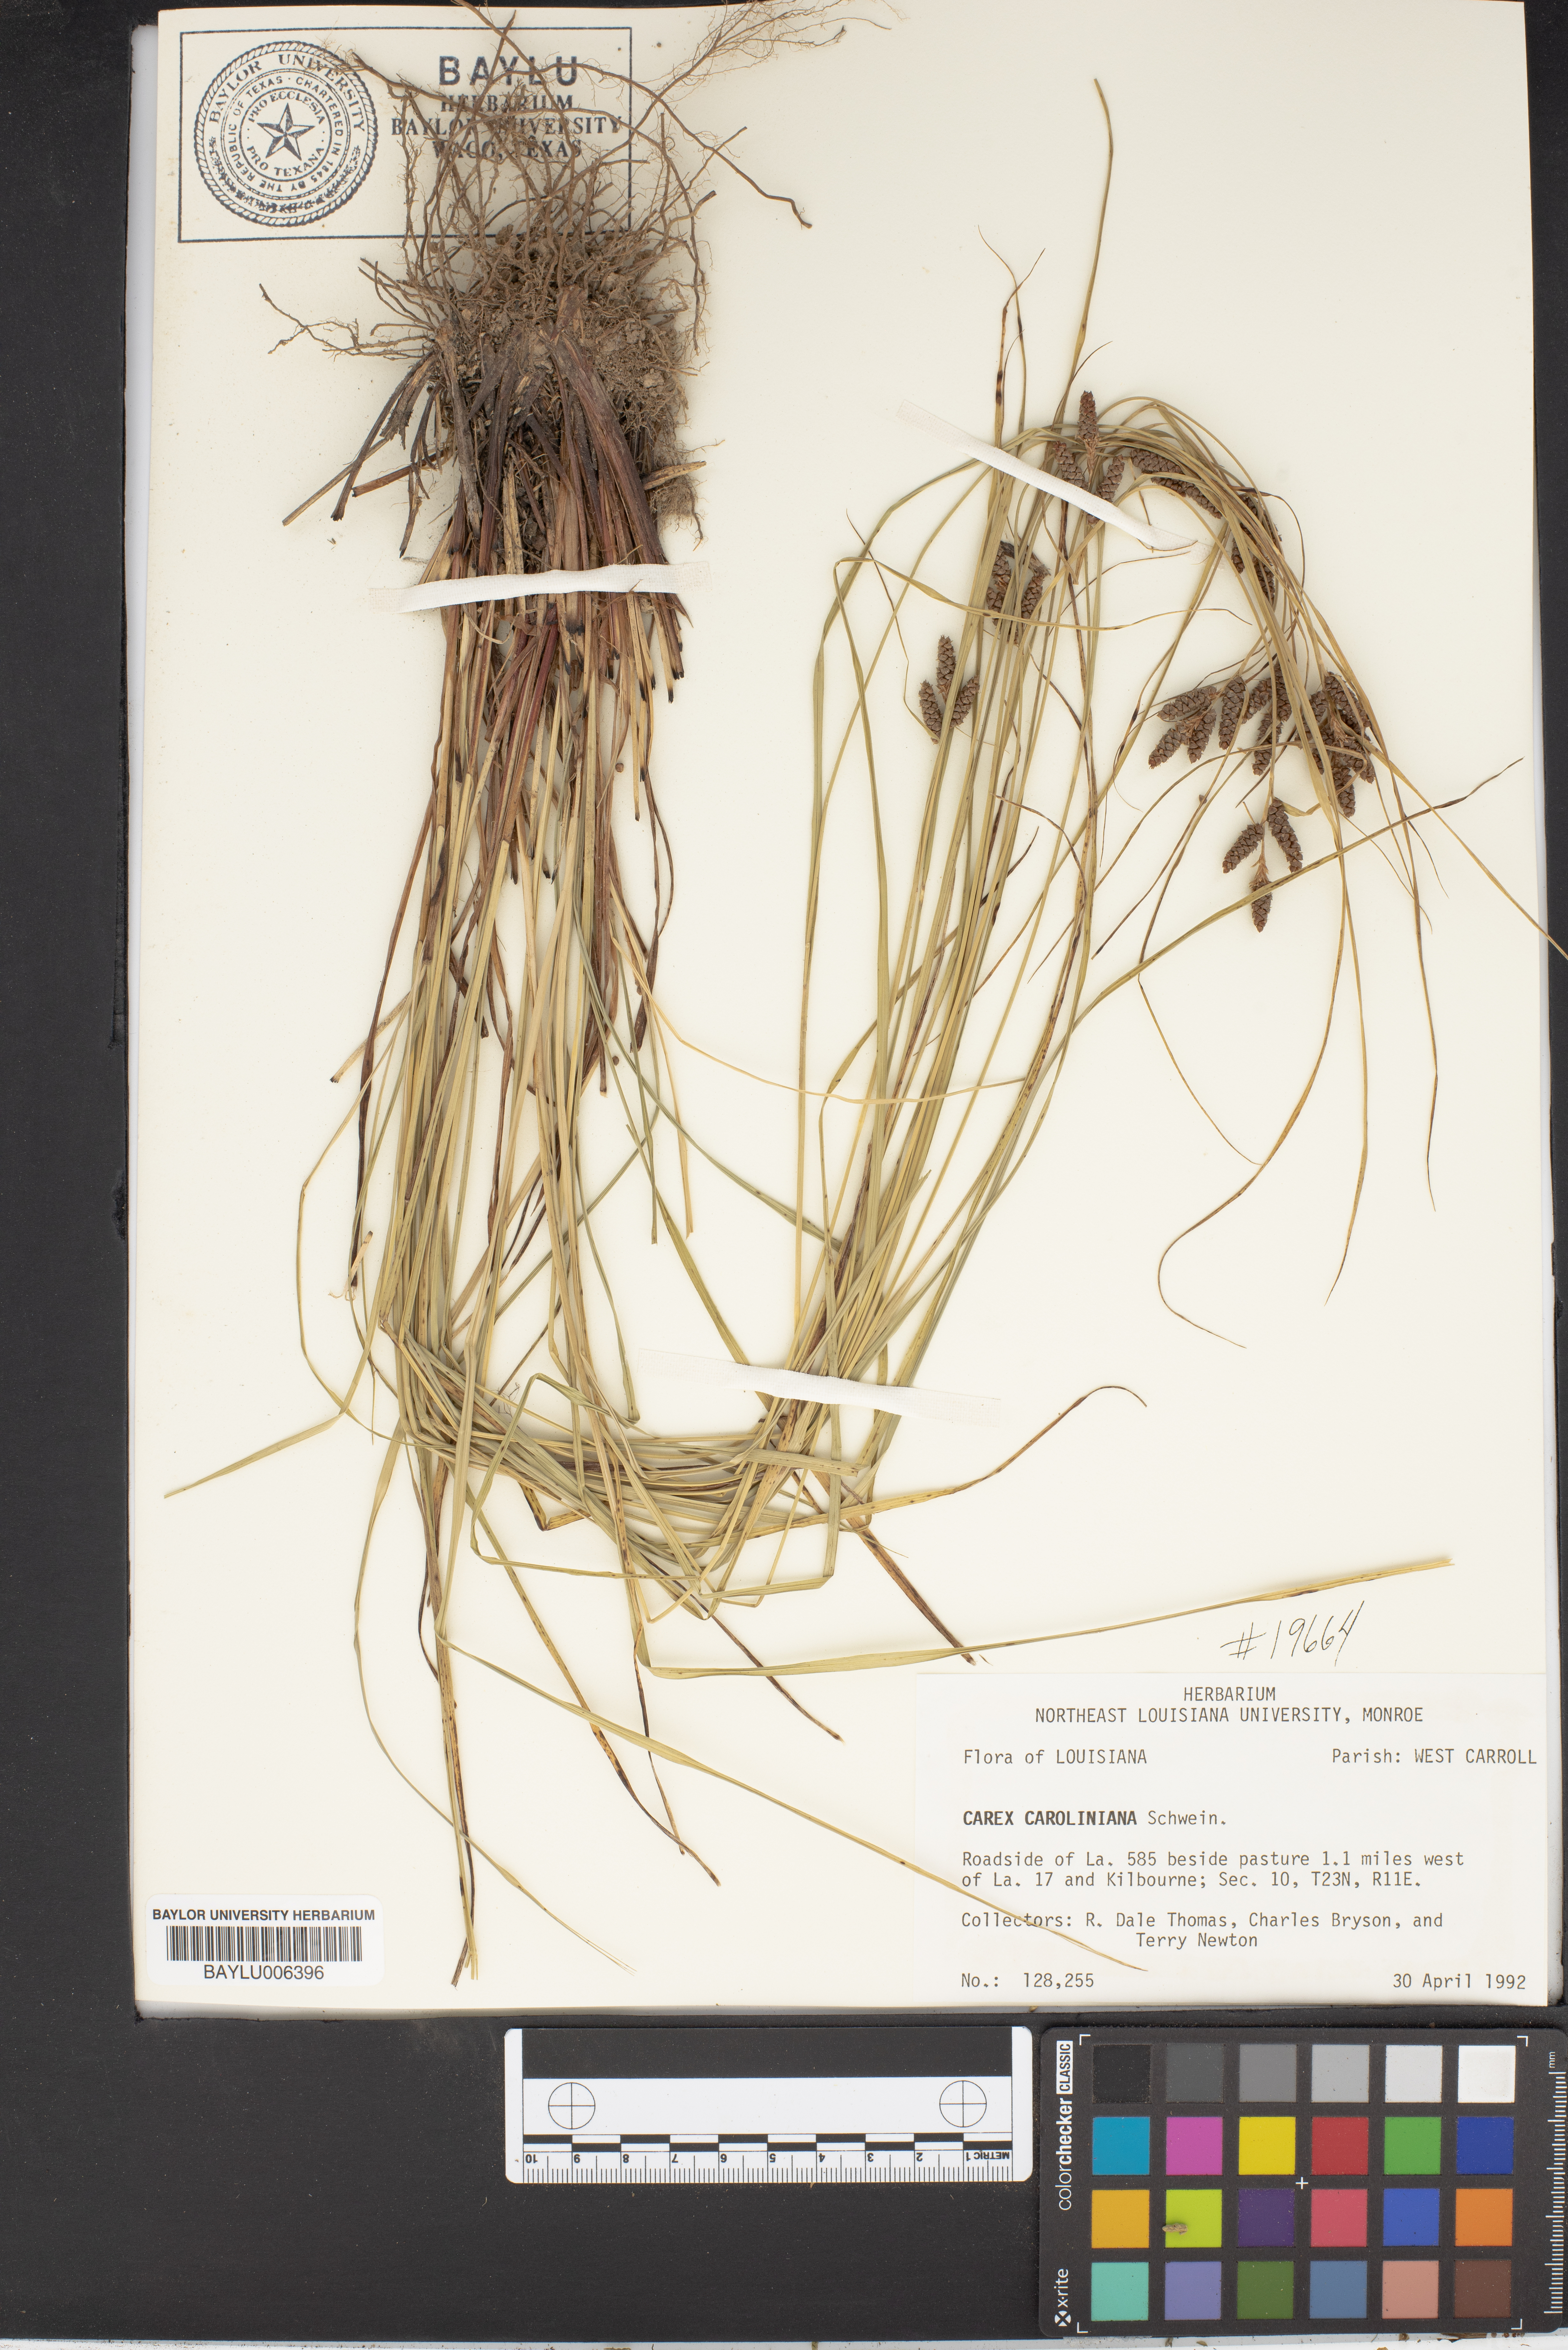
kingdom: Plantae
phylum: Tracheophyta
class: Liliopsida
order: Poales
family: Cyperaceae
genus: Carex
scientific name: Carex caroliniana
